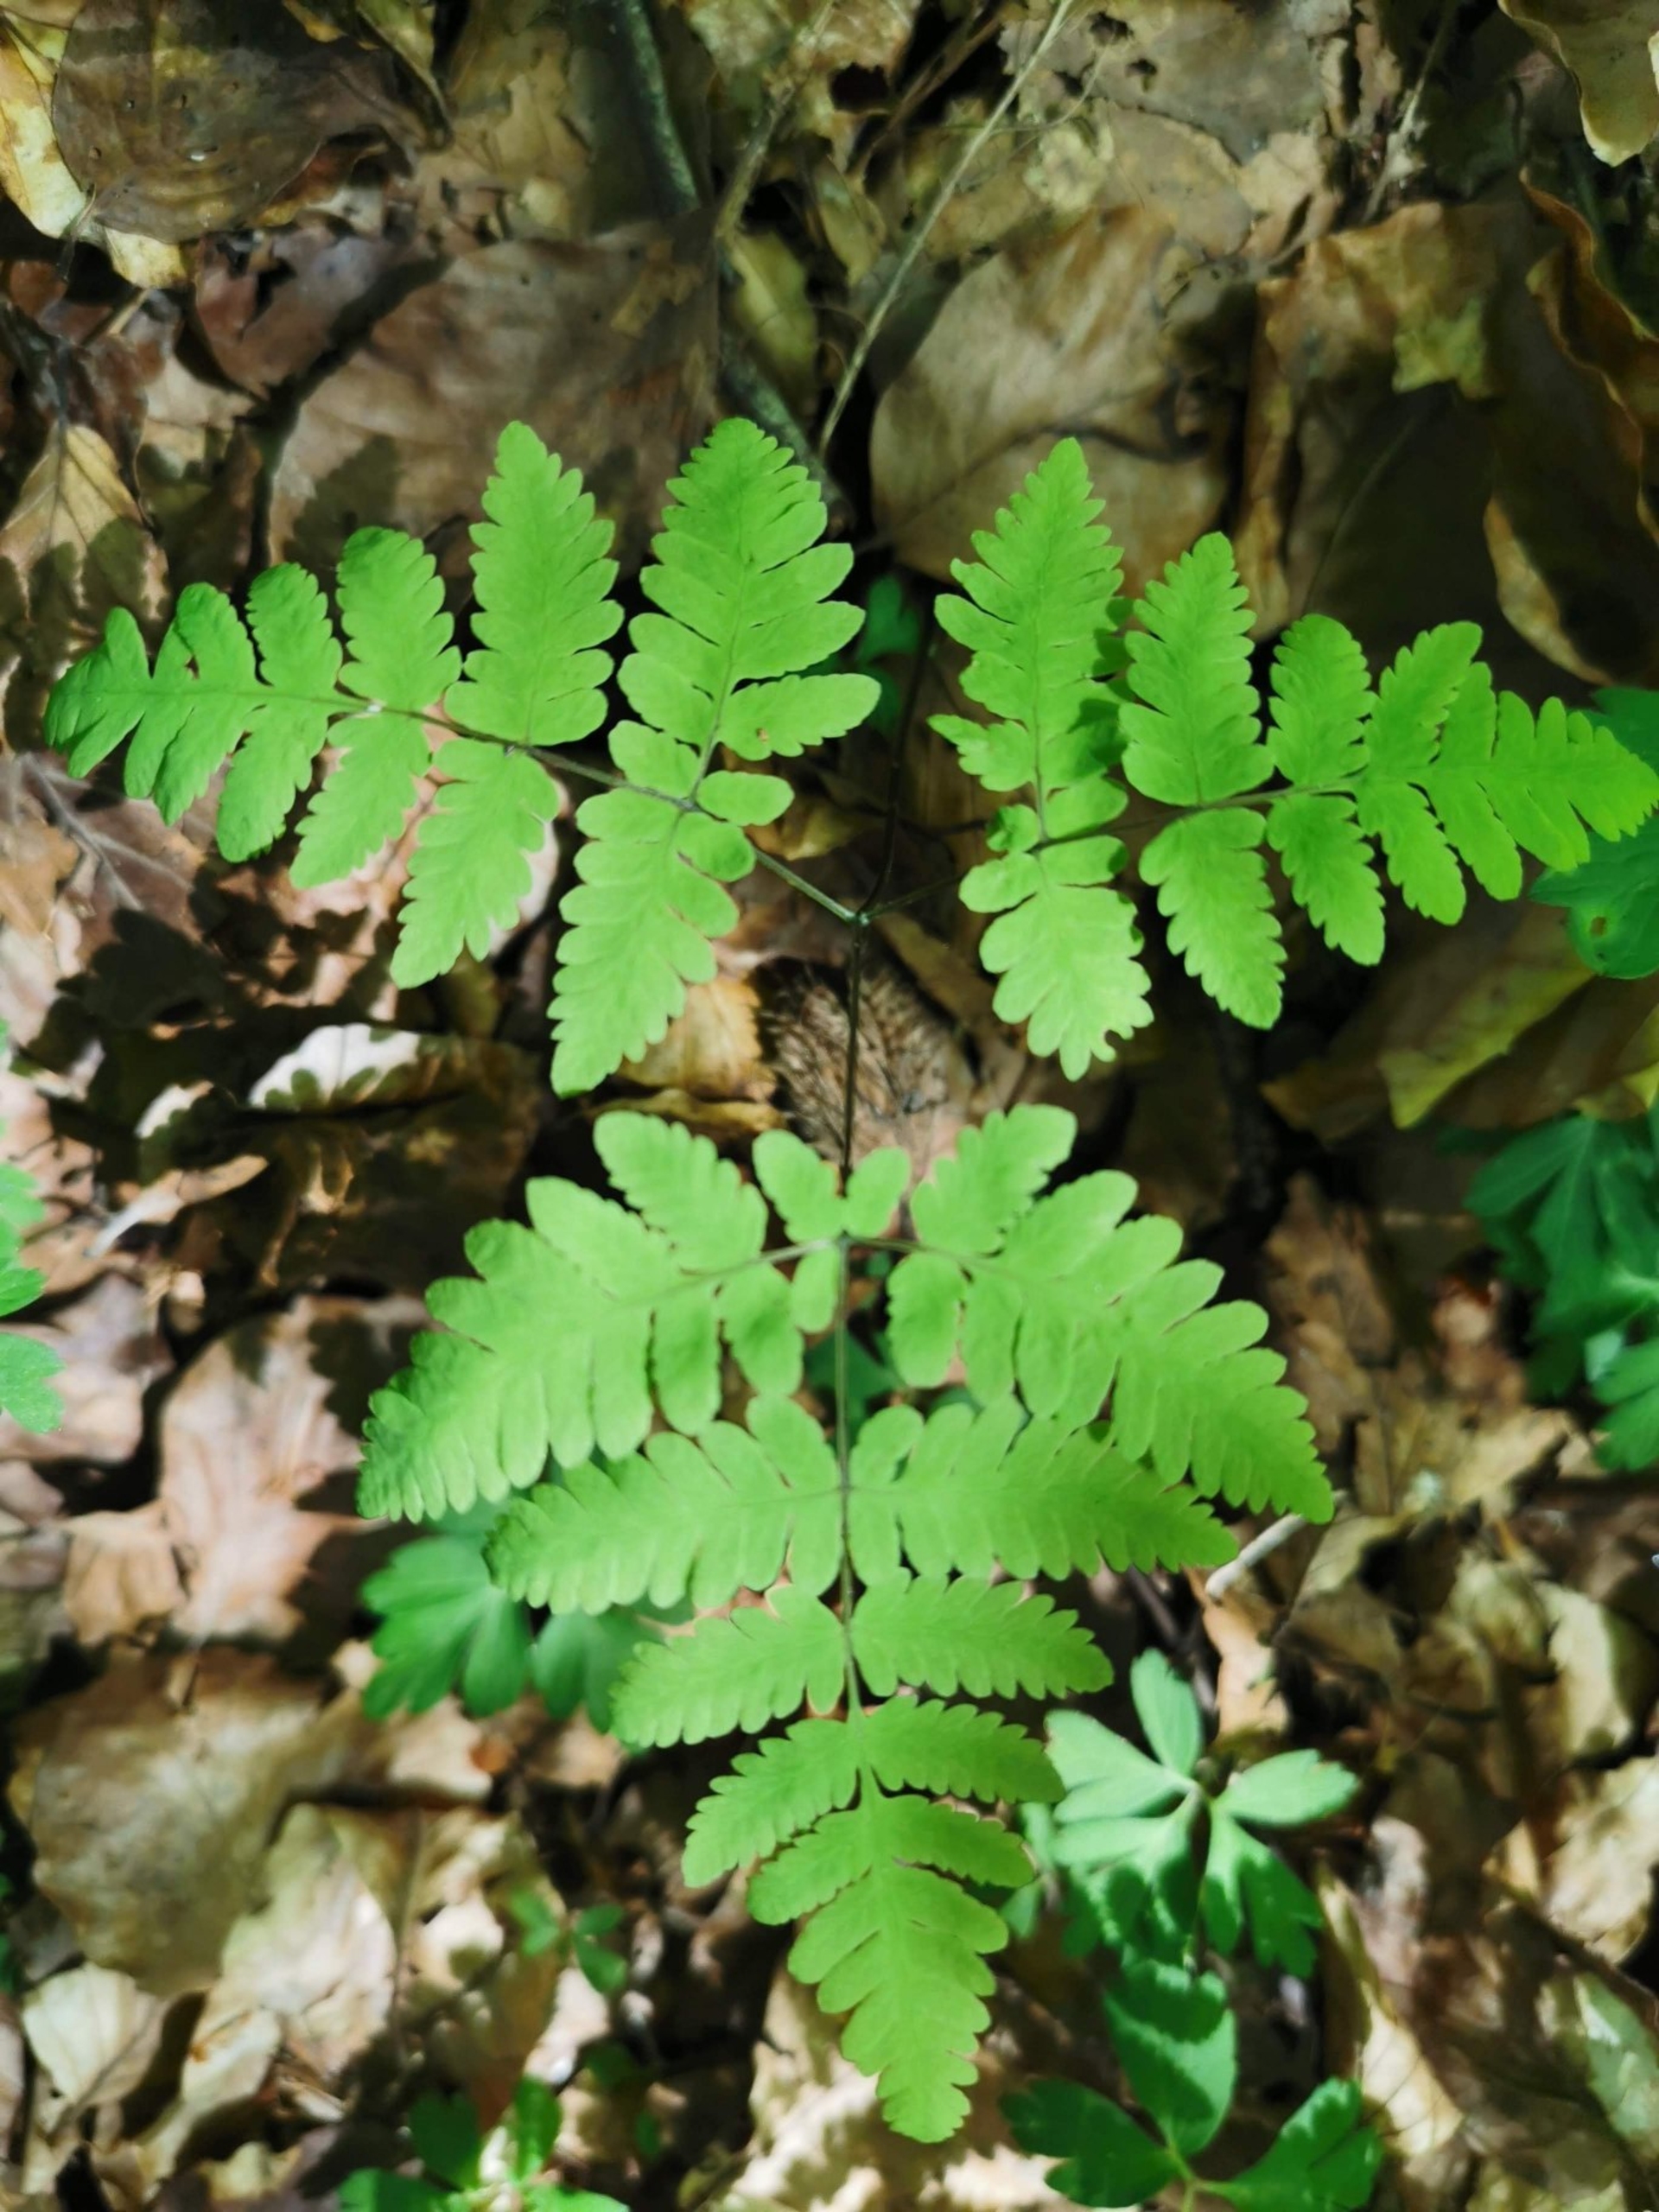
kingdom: Plantae
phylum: Tracheophyta
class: Polypodiopsida
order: Polypodiales
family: Cystopteridaceae
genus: Gymnocarpium
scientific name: Gymnocarpium dryopteris
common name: Tredelt egebregne
